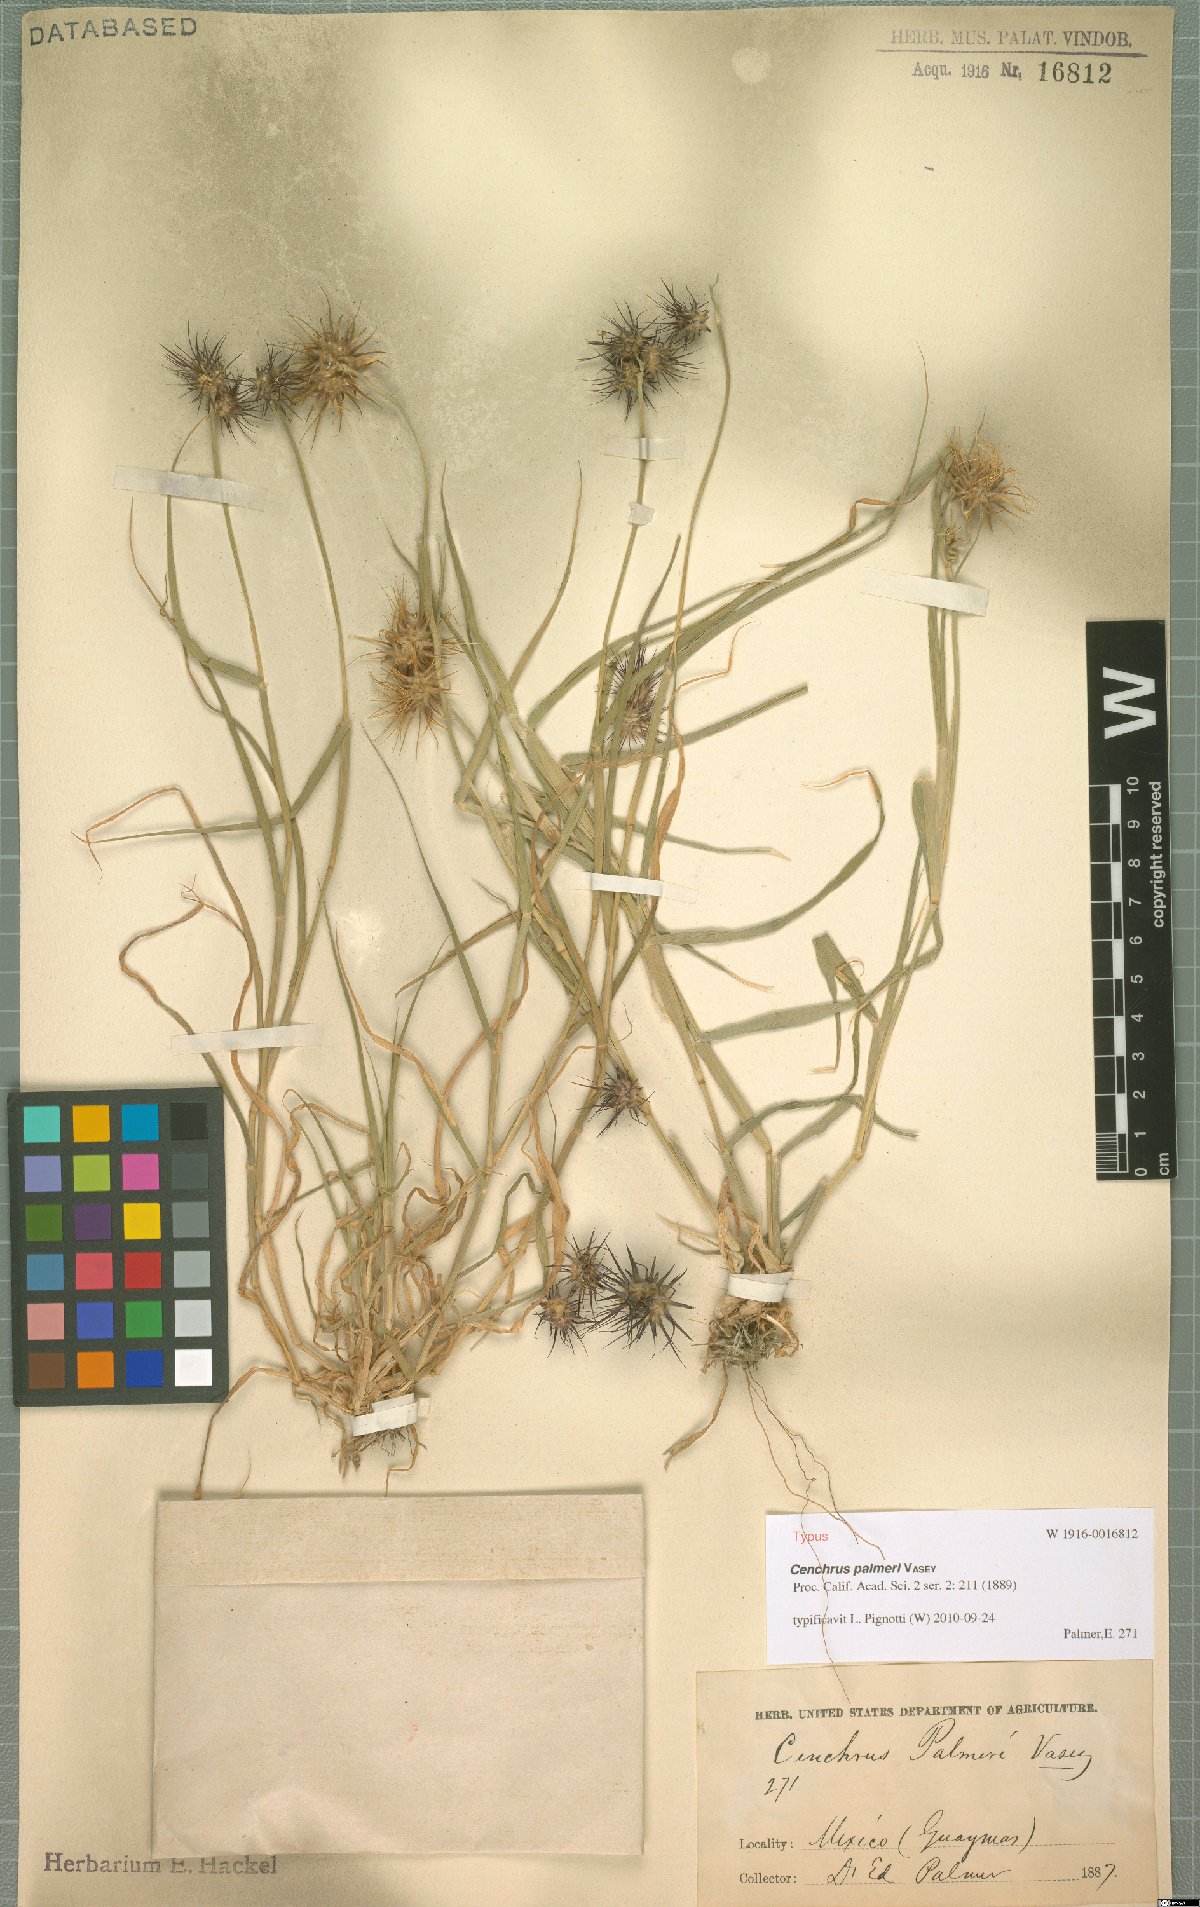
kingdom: Plantae
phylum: Tracheophyta
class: Liliopsida
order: Poales
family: Poaceae
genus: Cenchrus
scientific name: Cenchrus palmeri
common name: Giant sandbur
